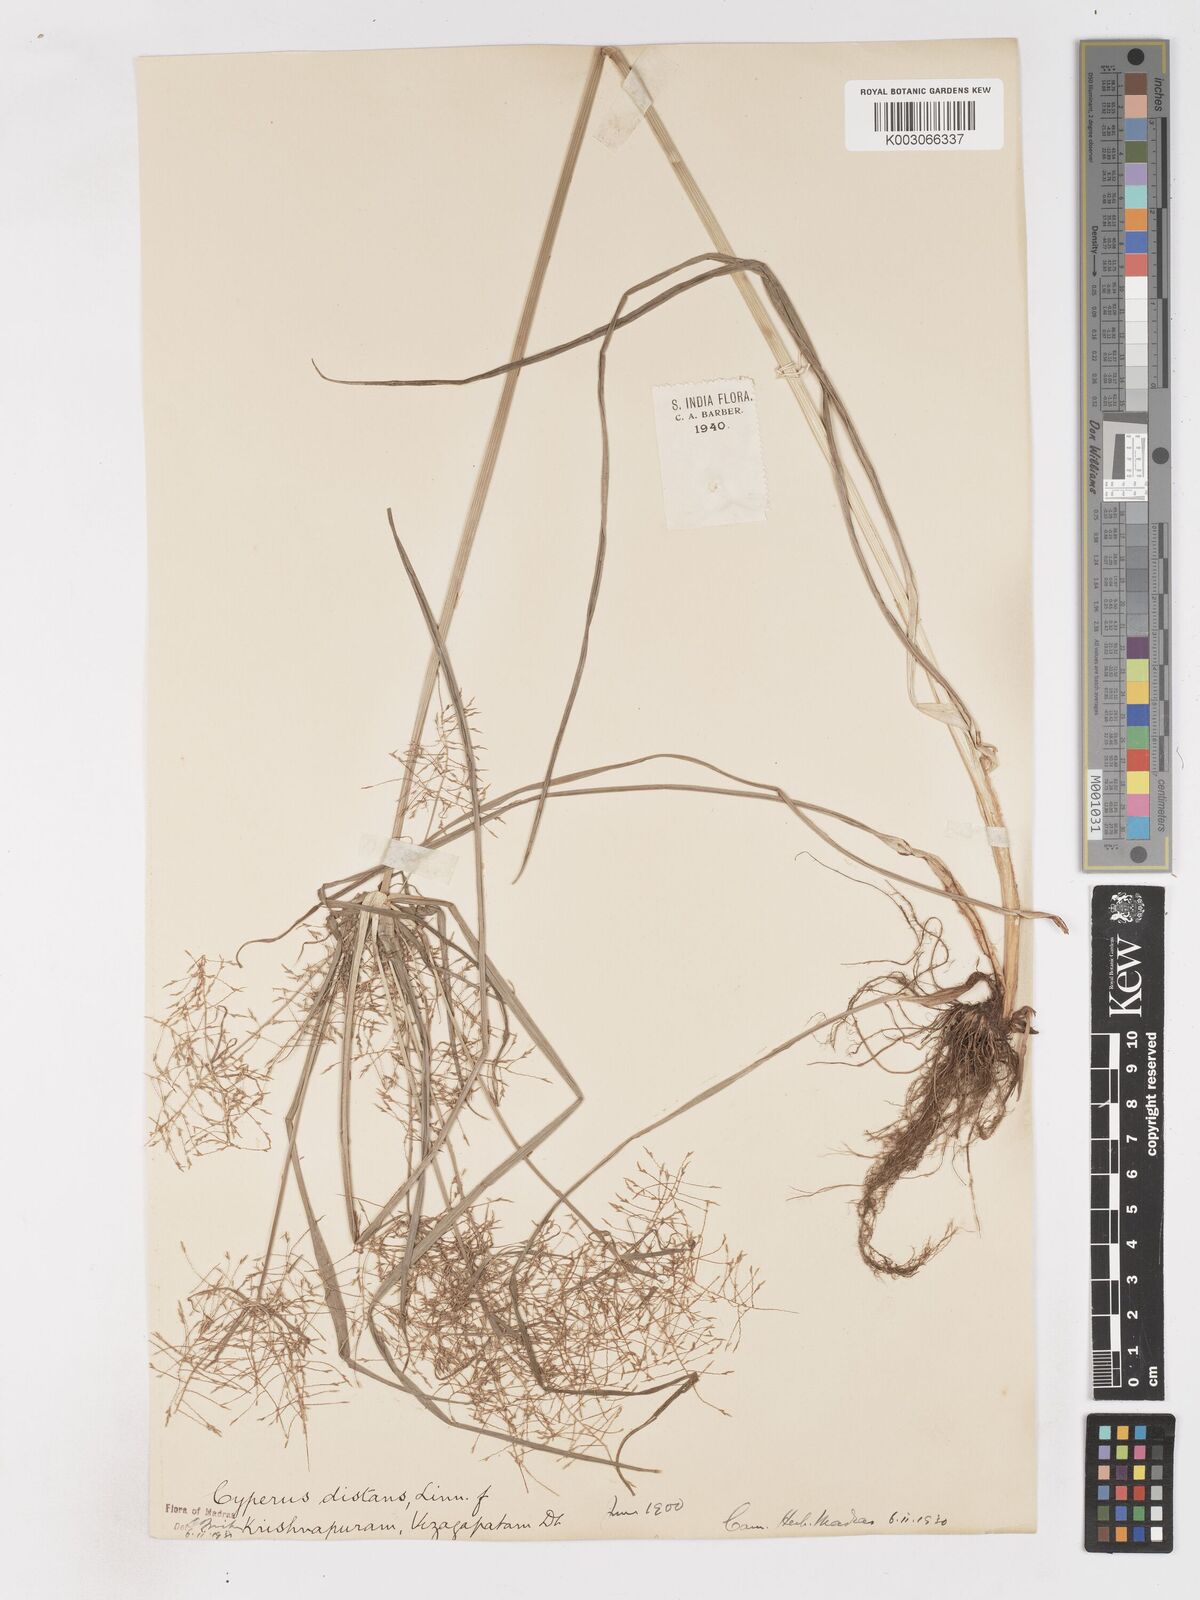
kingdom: Plantae
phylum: Tracheophyta
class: Liliopsida
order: Poales
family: Cyperaceae
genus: Cyperus
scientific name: Cyperus distans
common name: Slender cyperus
